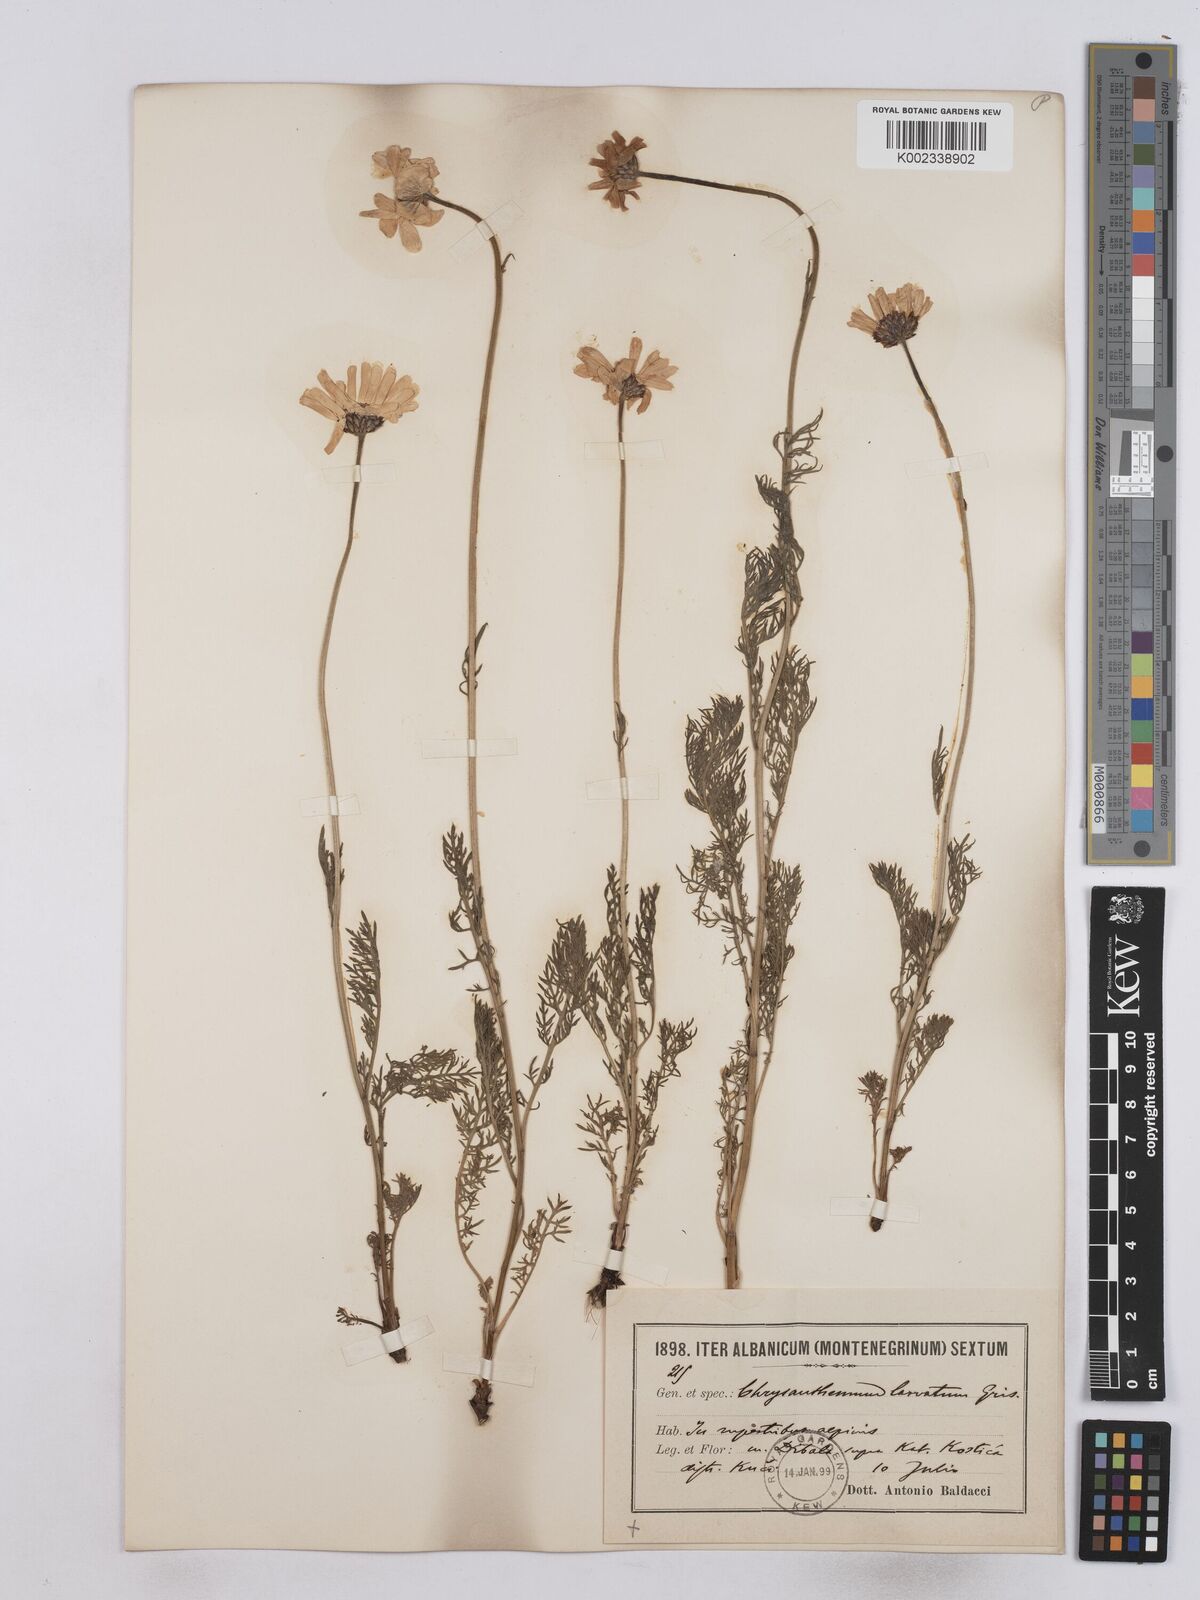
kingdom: Plantae
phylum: Tracheophyta
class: Magnoliopsida
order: Asterales
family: Asteraceae
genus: Leucanthemum
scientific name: Leucanthemum coronopifolium
